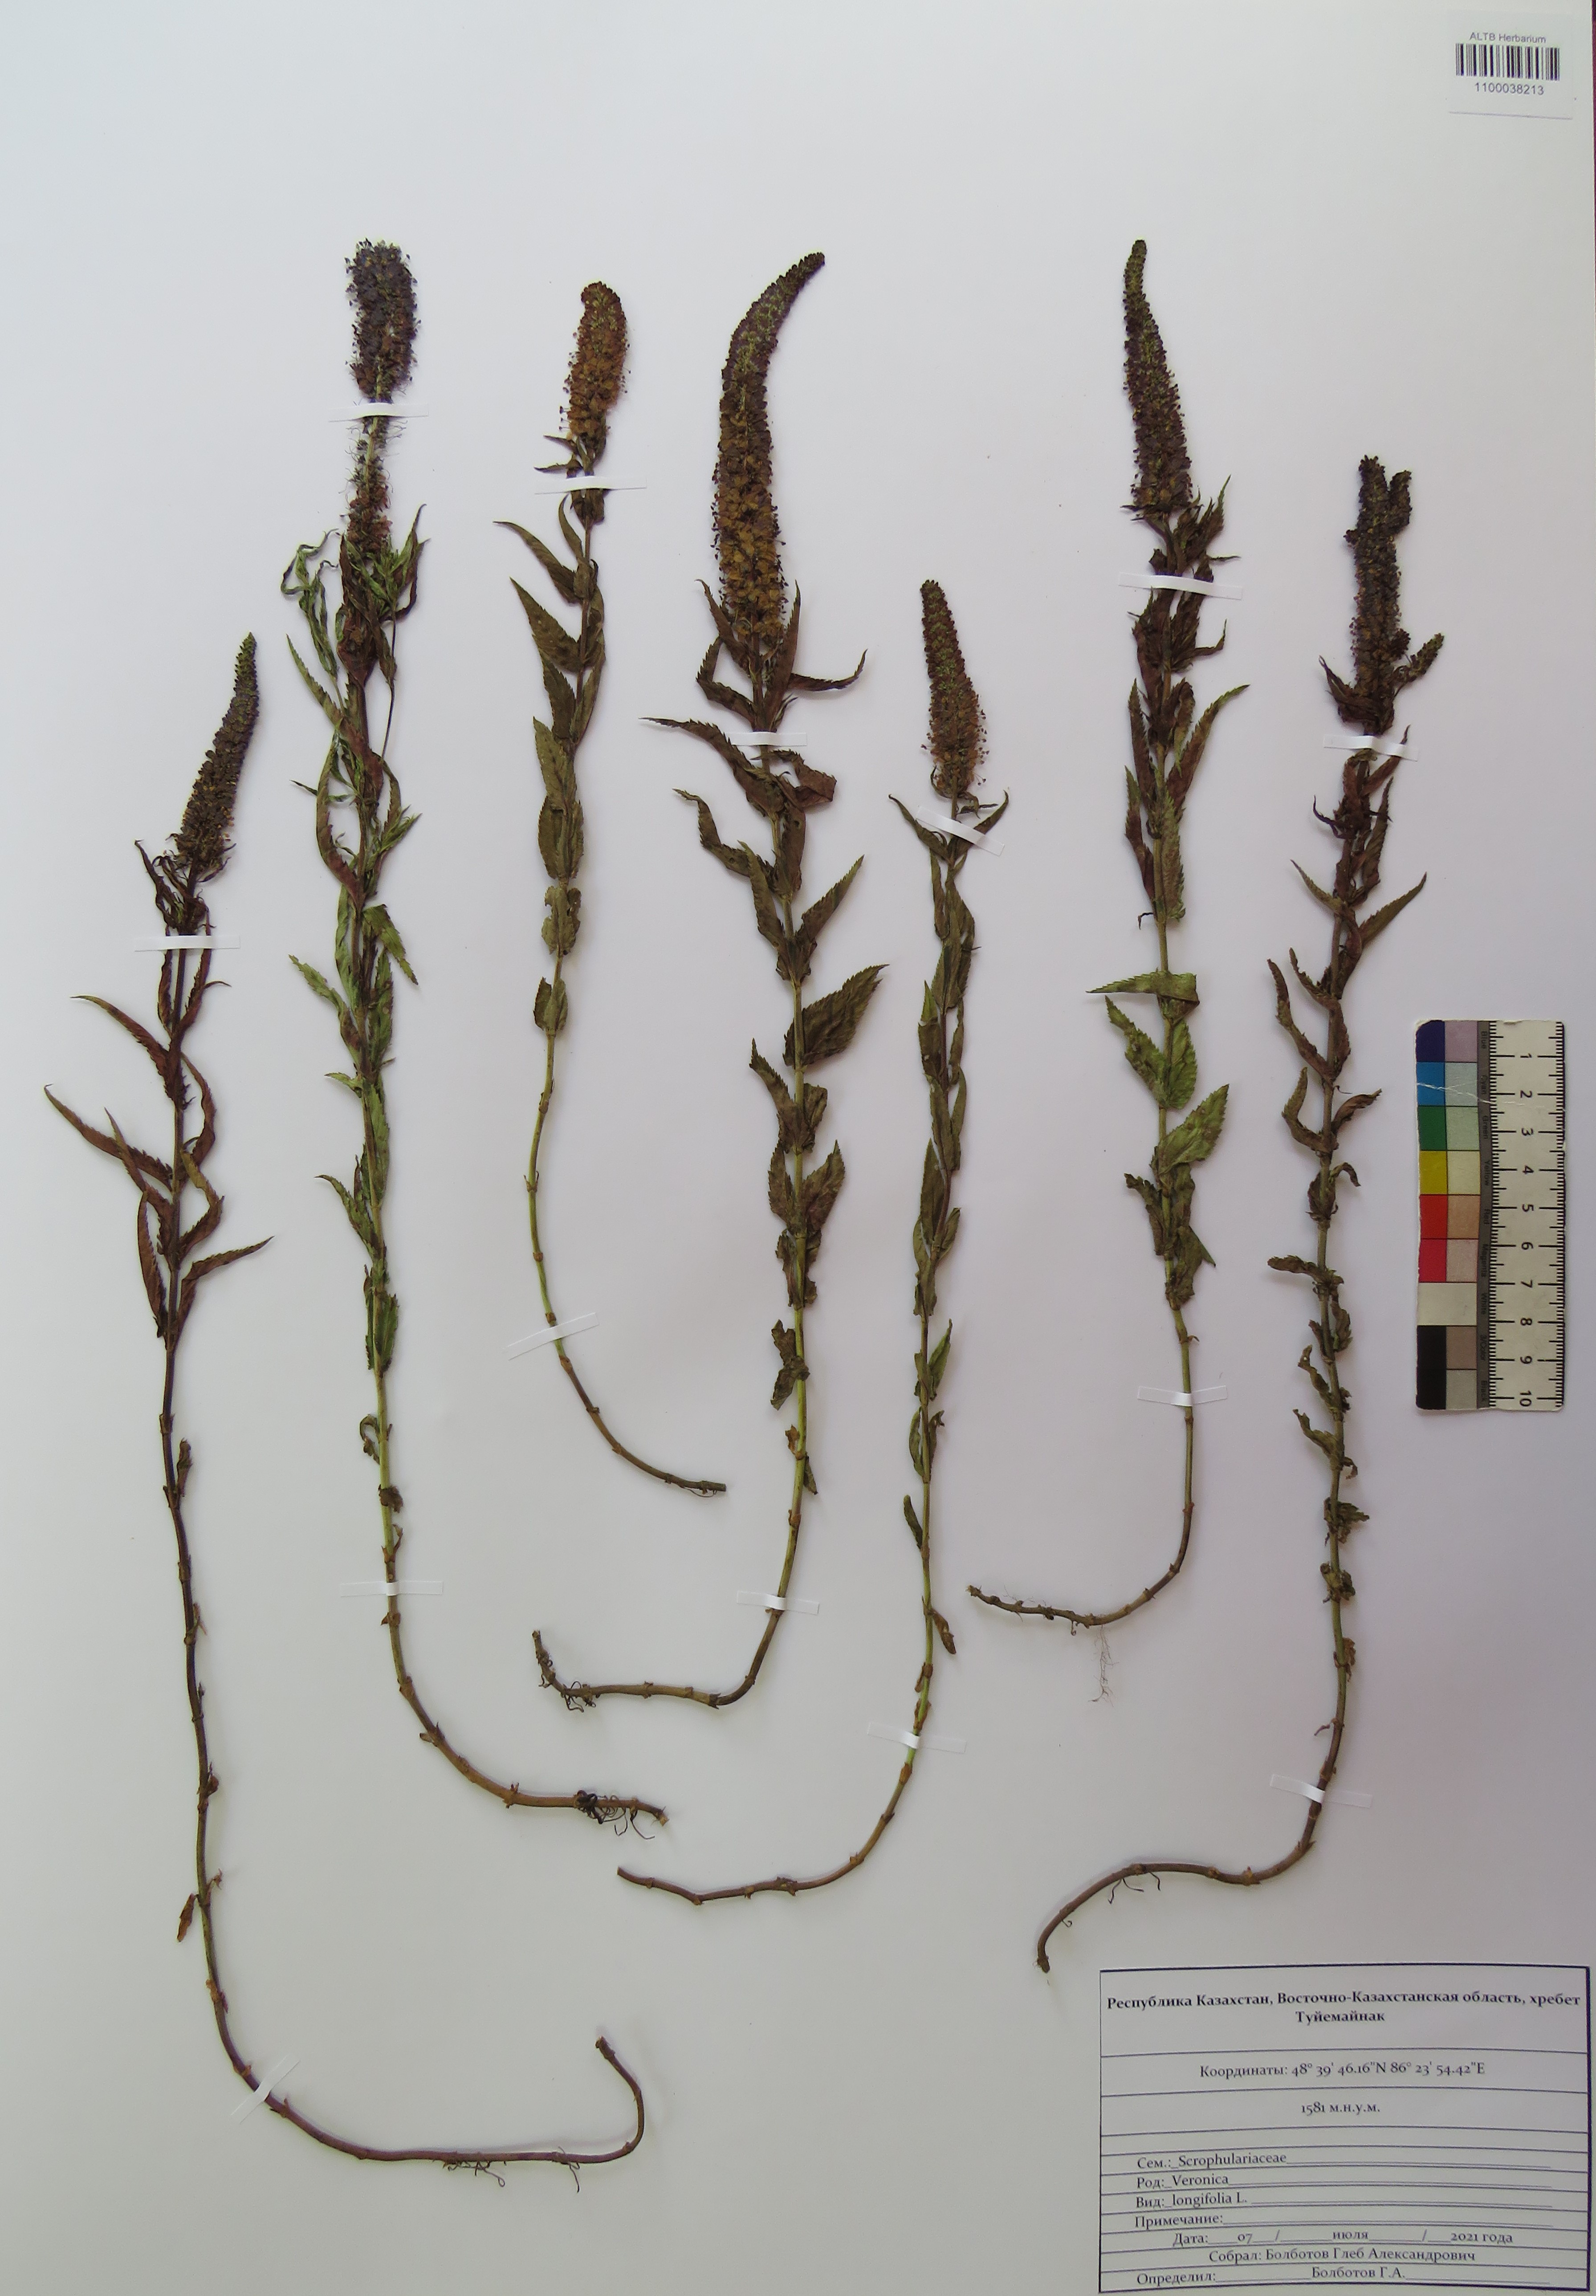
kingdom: Plantae
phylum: Tracheophyta
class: Magnoliopsida
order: Lamiales
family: Plantaginaceae
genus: Veronica
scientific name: Veronica longifolia
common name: Garden speedwell
